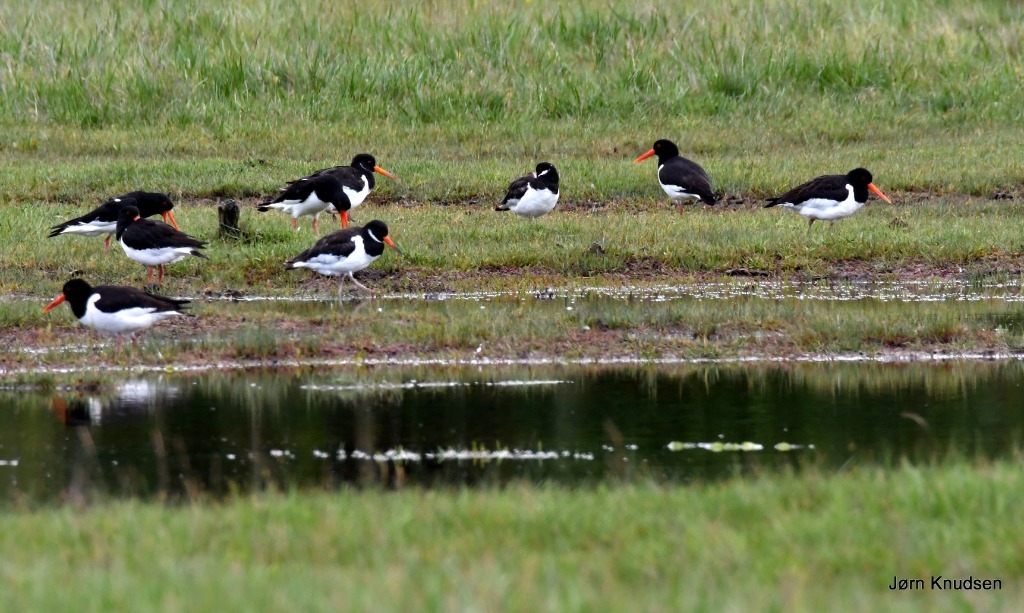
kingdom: Animalia
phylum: Chordata
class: Aves
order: Charadriiformes
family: Haematopodidae
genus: Haematopus
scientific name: Haematopus ostralegus
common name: Strandskade
